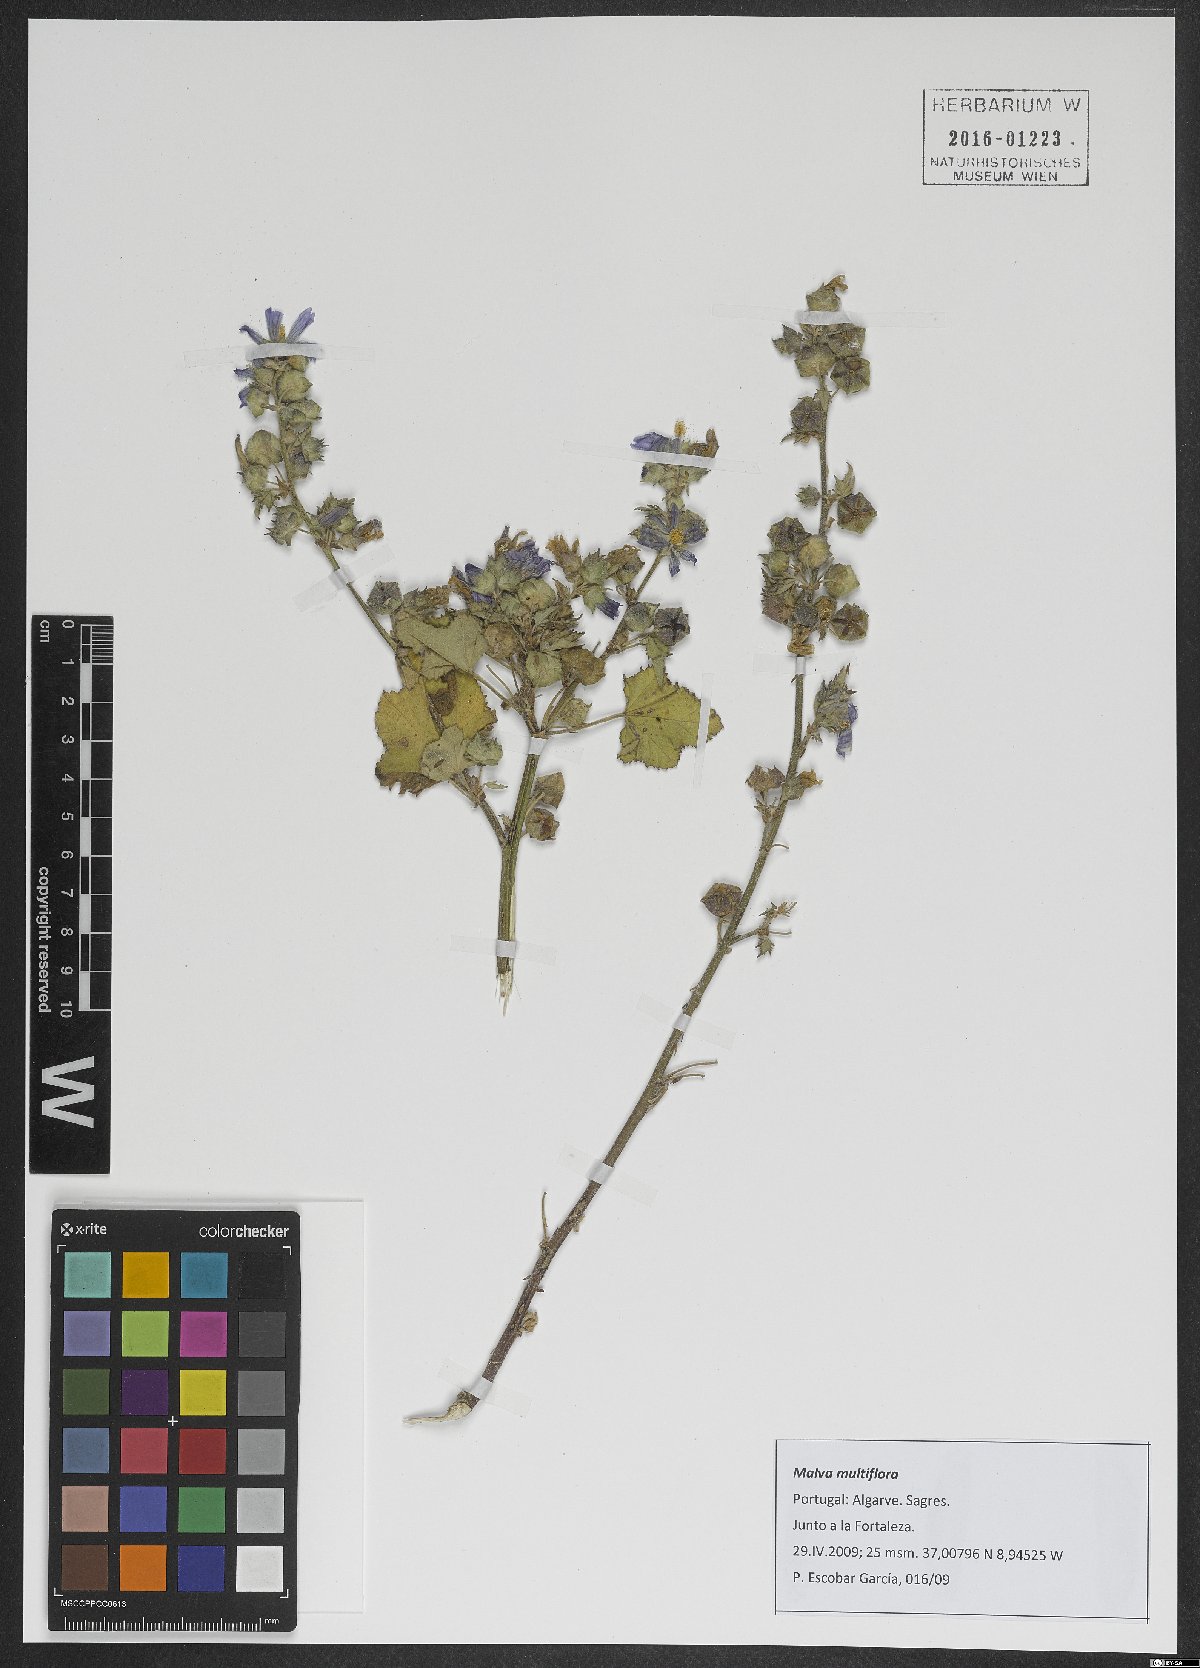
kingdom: Plantae
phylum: Tracheophyta
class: Magnoliopsida
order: Malvales
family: Malvaceae
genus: Malva
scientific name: Malva multiflora
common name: Cheeseweed
